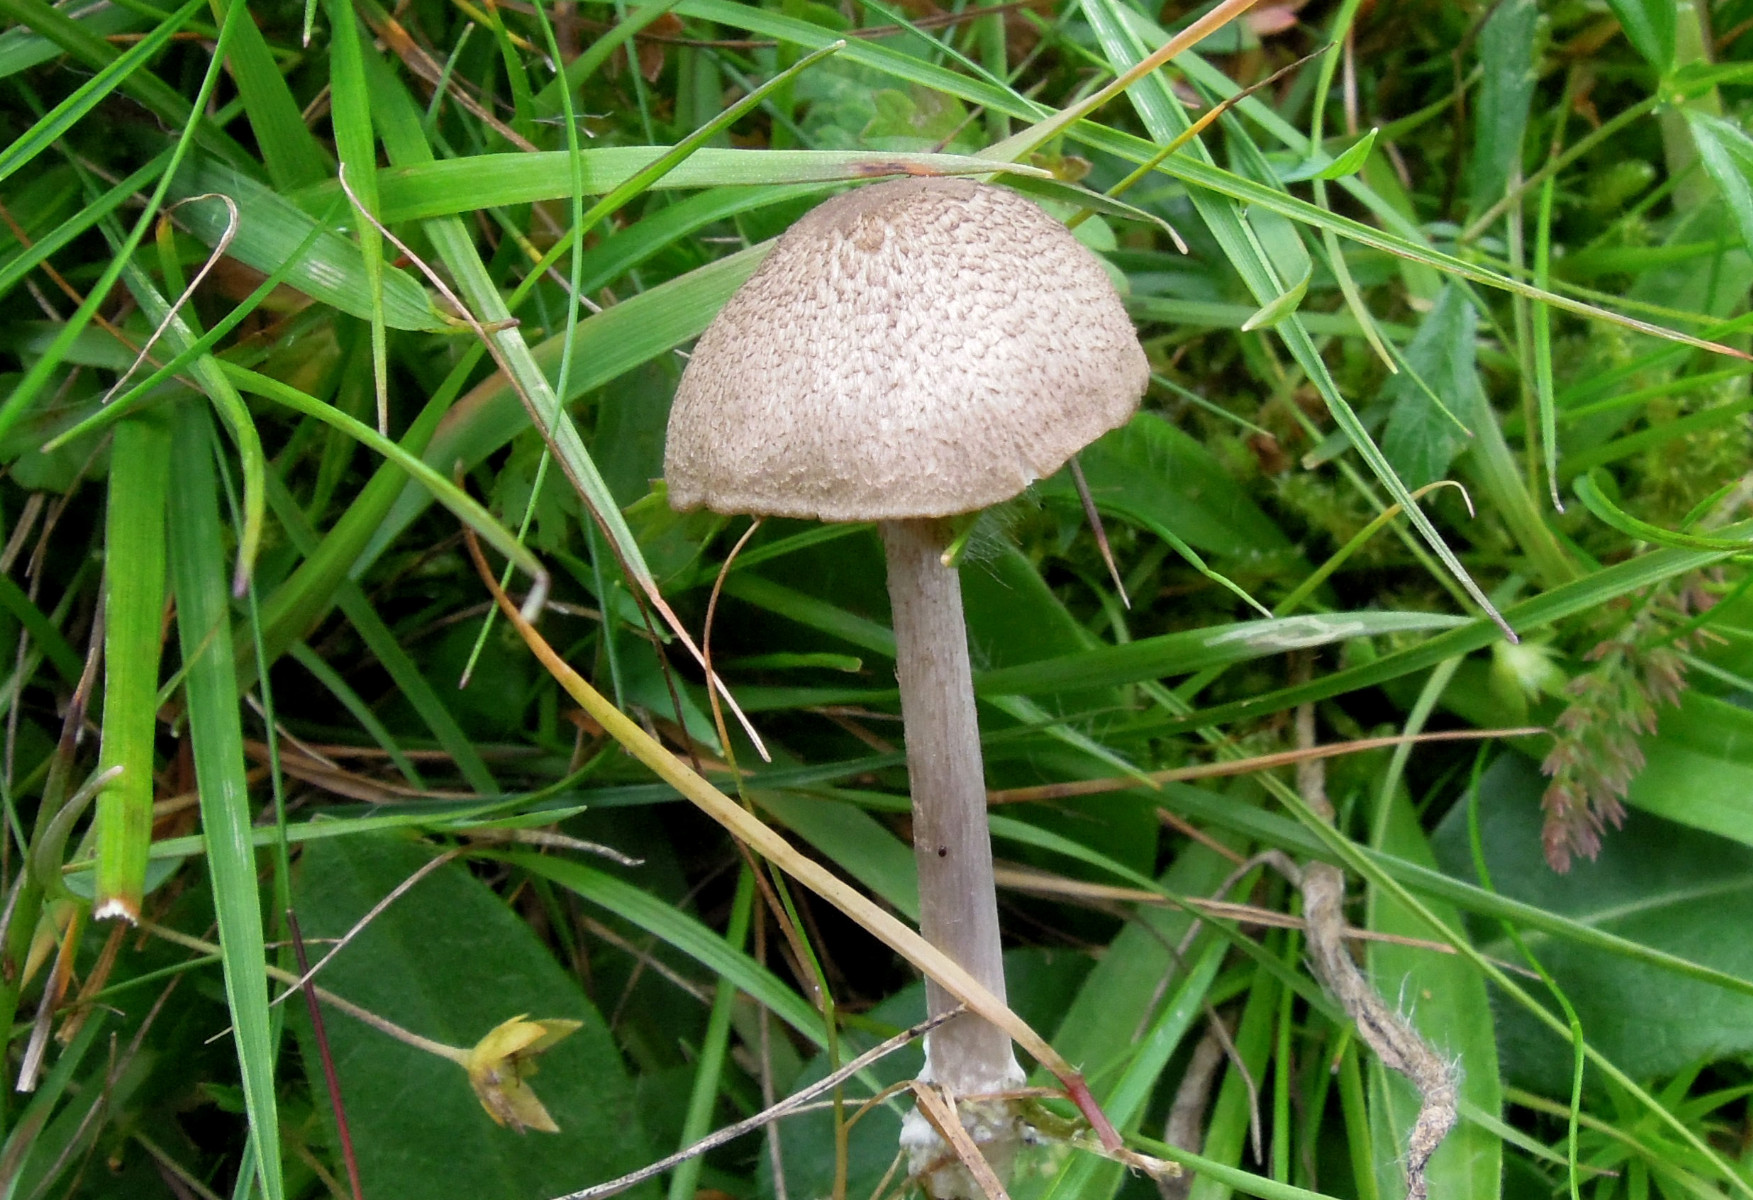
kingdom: Fungi
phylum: Basidiomycota
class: Agaricomycetes
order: Agaricales
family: Entolomataceae
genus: Entoloma
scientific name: Entoloma
